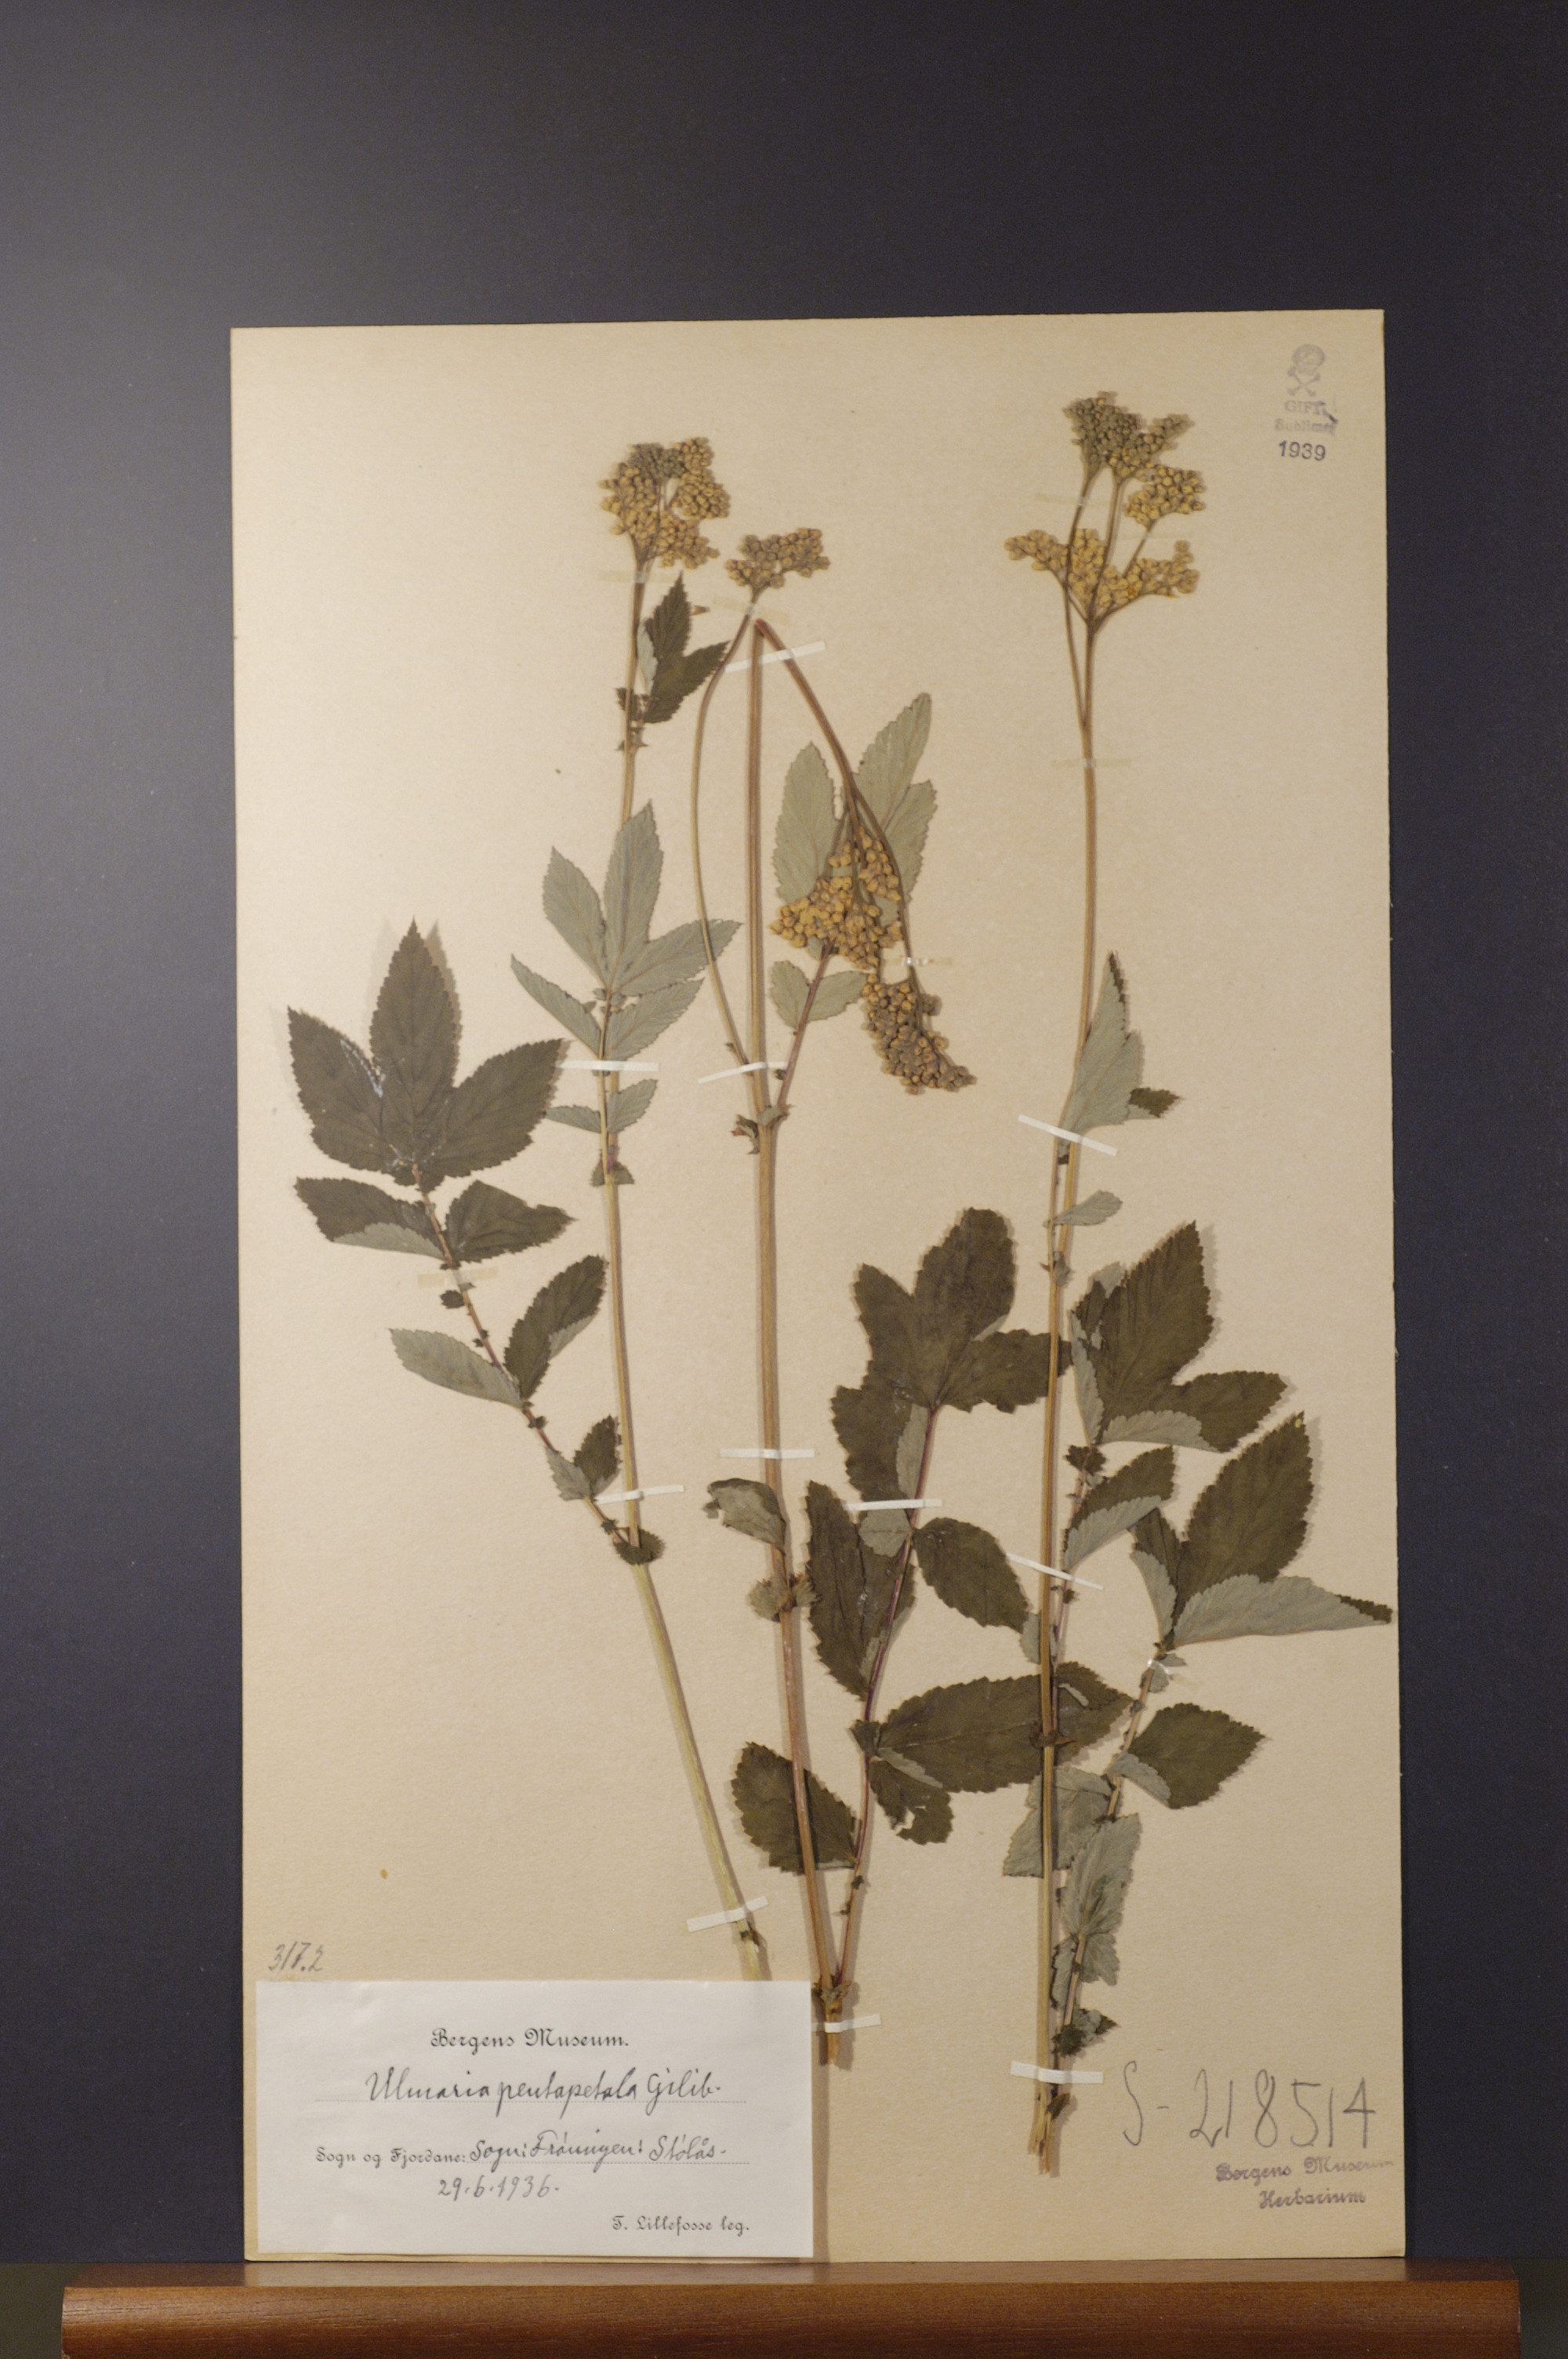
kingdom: Plantae
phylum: Tracheophyta
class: Magnoliopsida
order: Rosales
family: Rosaceae
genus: Filipendula
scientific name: Filipendula ulmaria
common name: Meadowsweet
